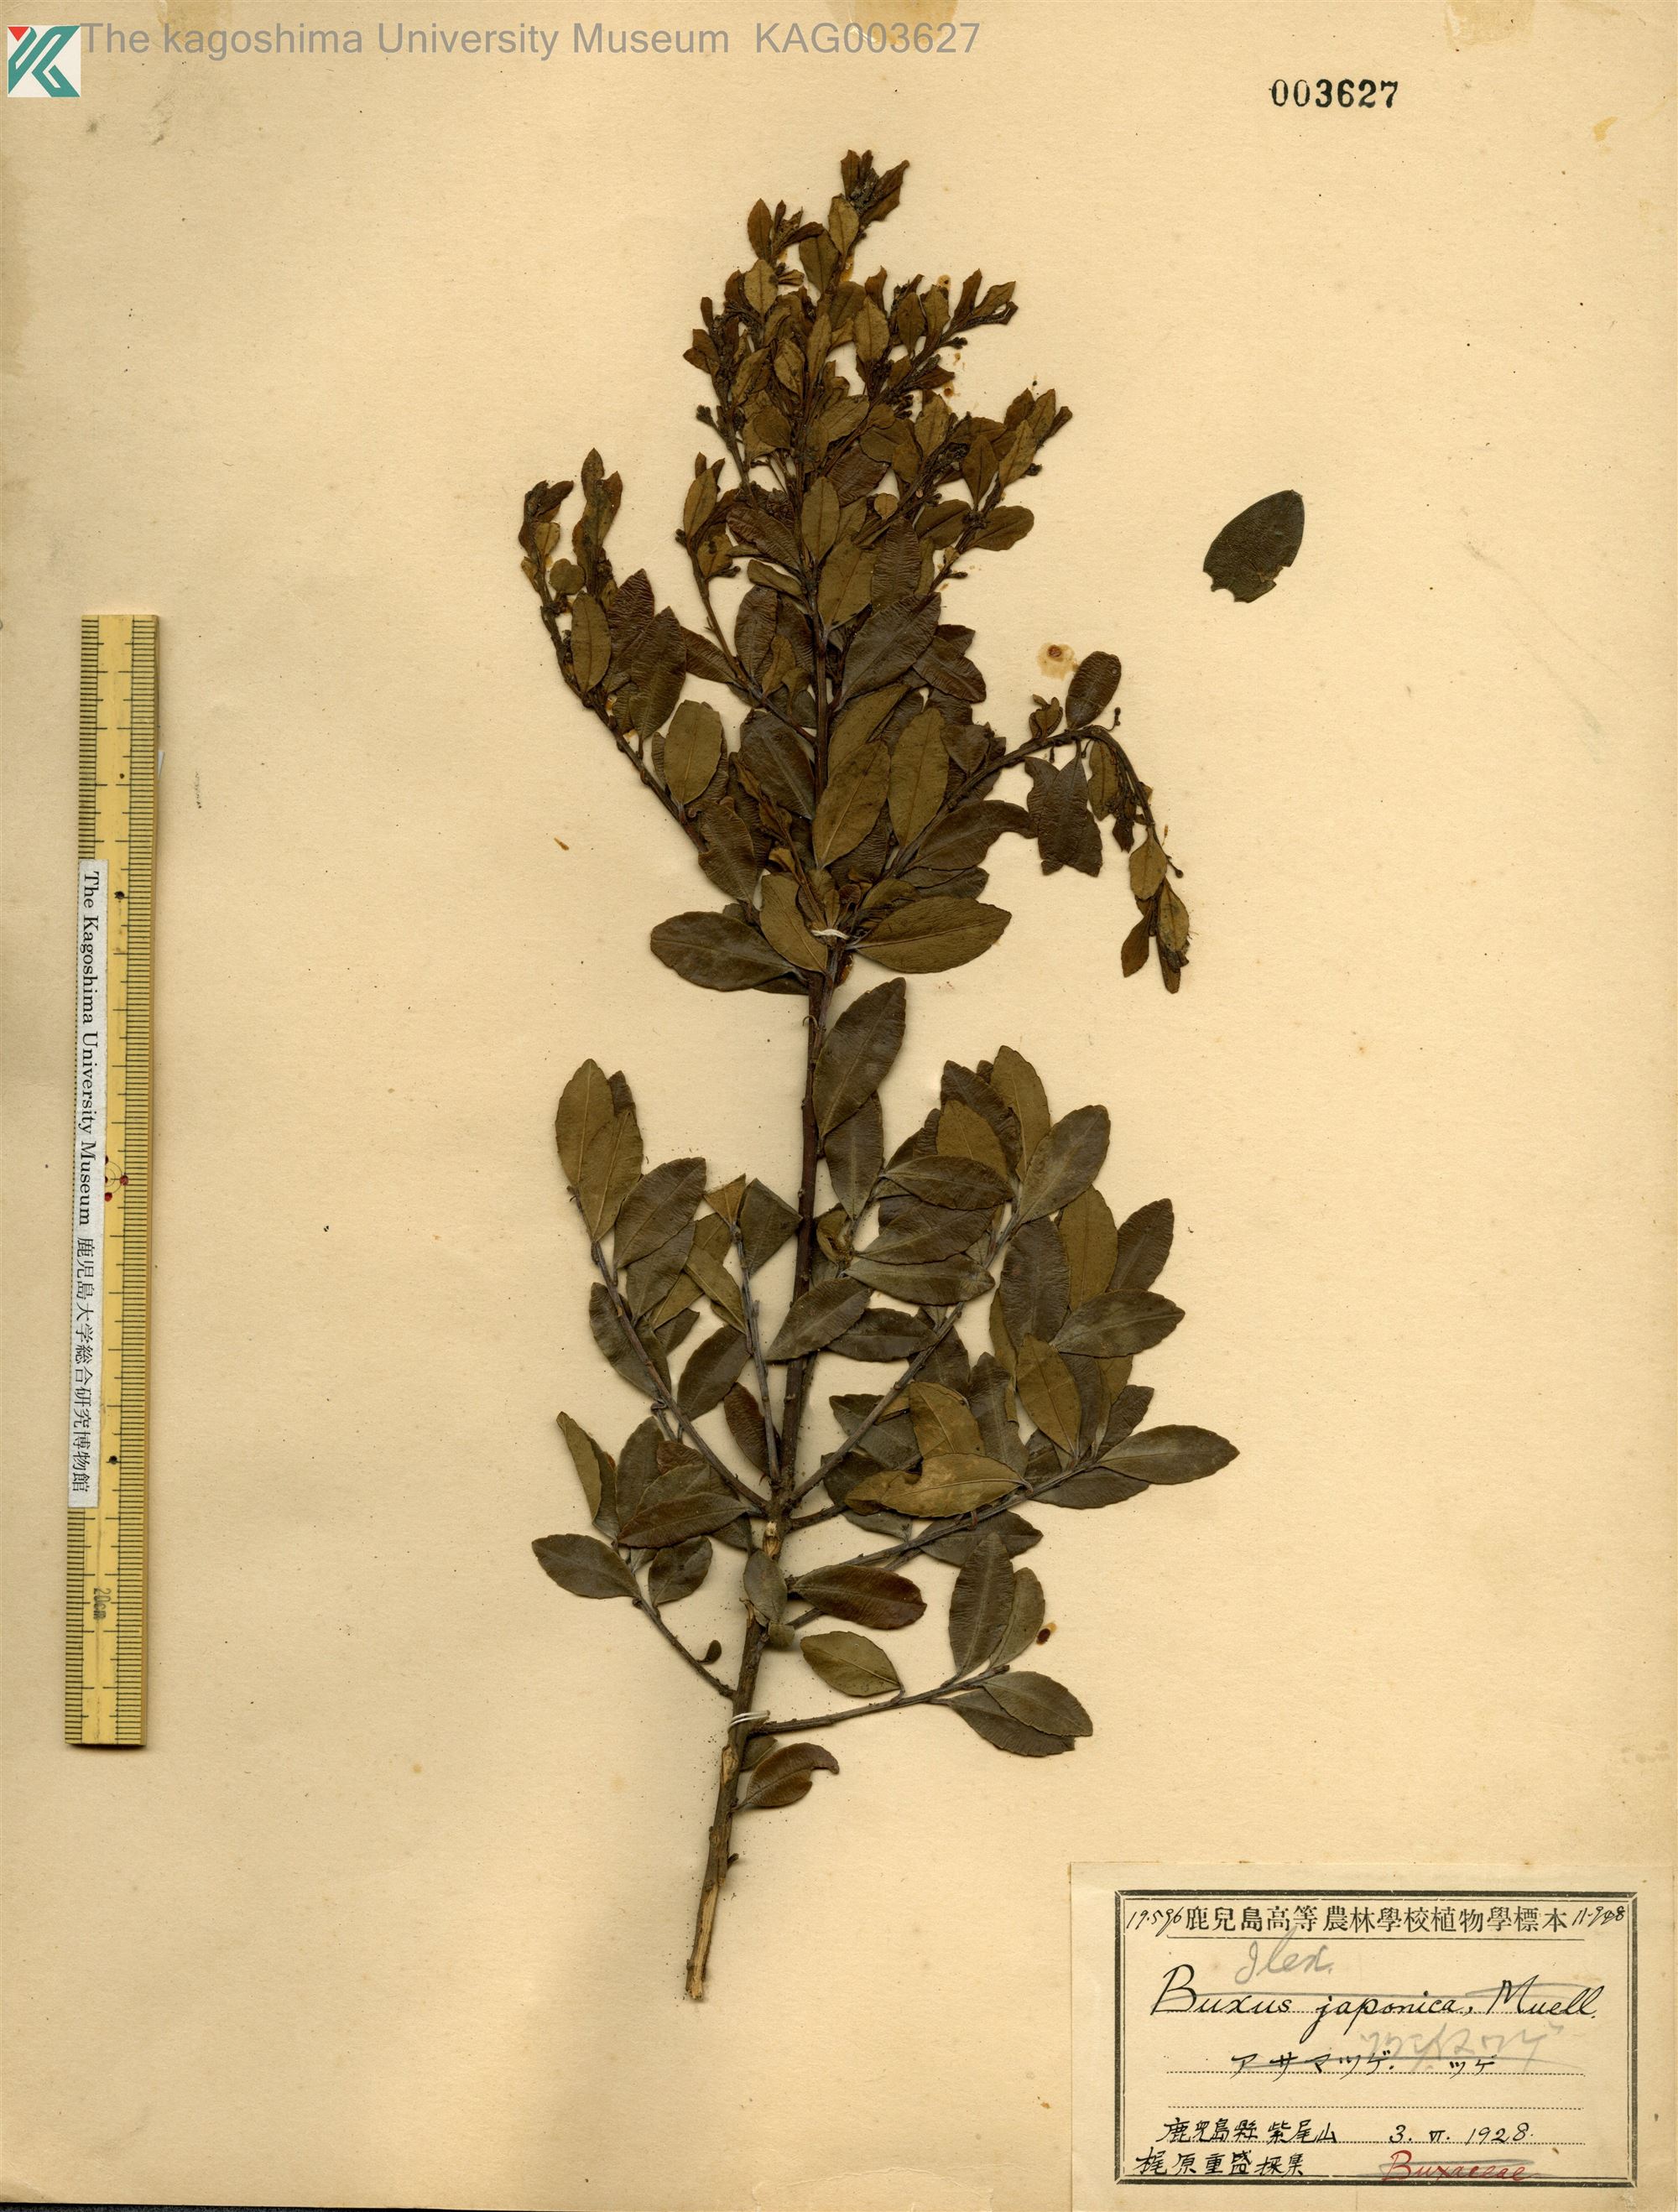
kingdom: Plantae
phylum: Tracheophyta
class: Magnoliopsida
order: Aquifoliales
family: Aquifoliaceae
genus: Ilex
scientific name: Ilex crenata
